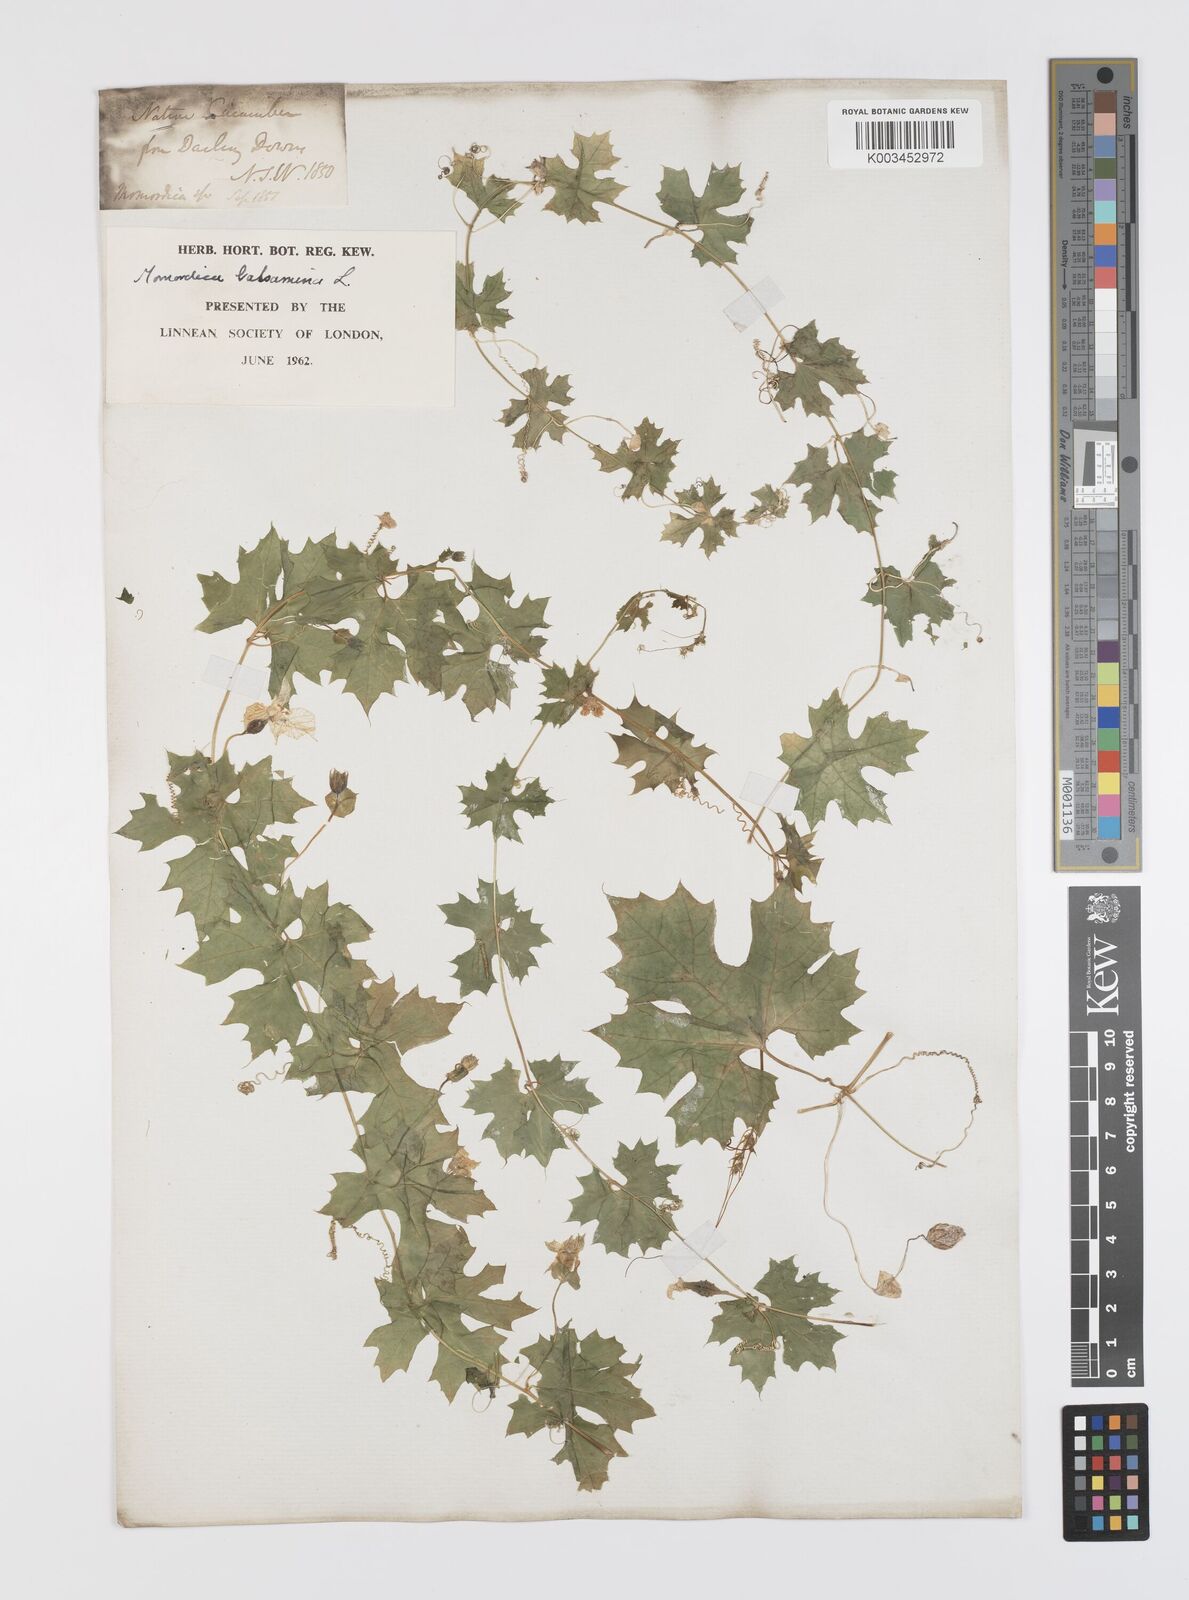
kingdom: Plantae
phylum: Tracheophyta
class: Magnoliopsida
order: Cucurbitales
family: Cucurbitaceae
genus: Momordica
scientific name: Momordica balsamina
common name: Southern balsampear
